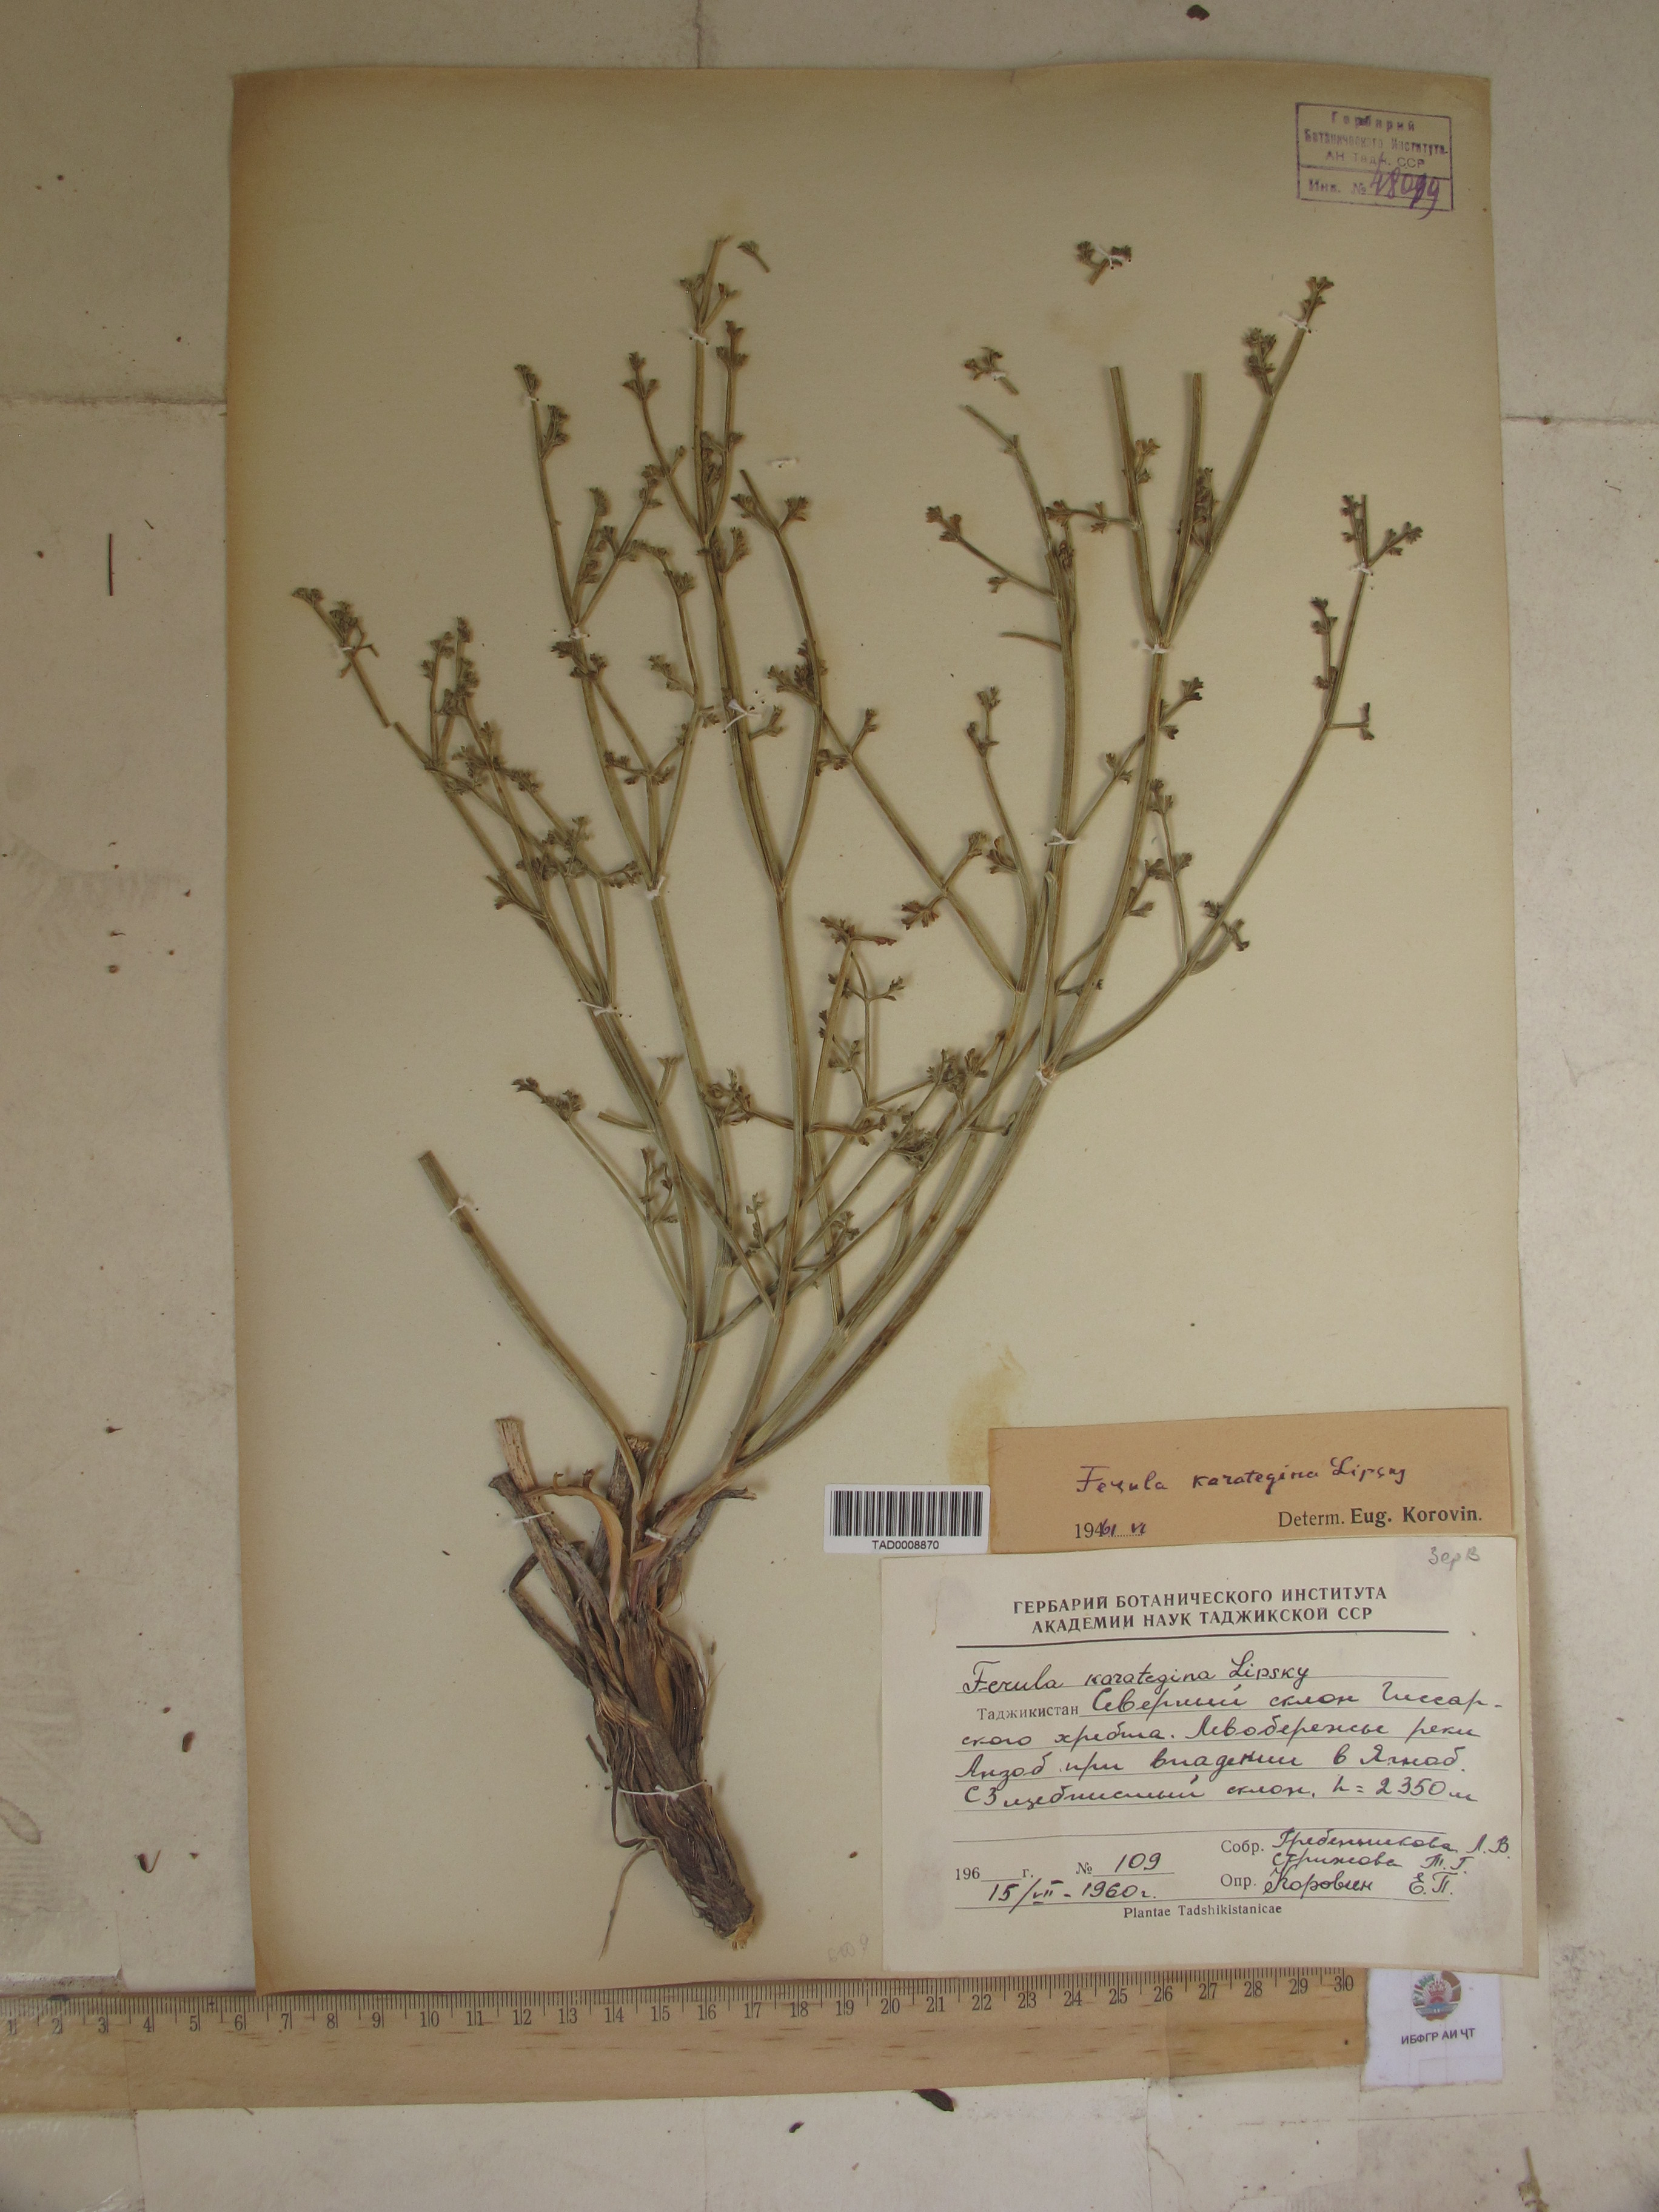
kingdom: Plantae
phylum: Tracheophyta
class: Magnoliopsida
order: Apiales
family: Apiaceae
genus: Ferula
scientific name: Ferula karategina
